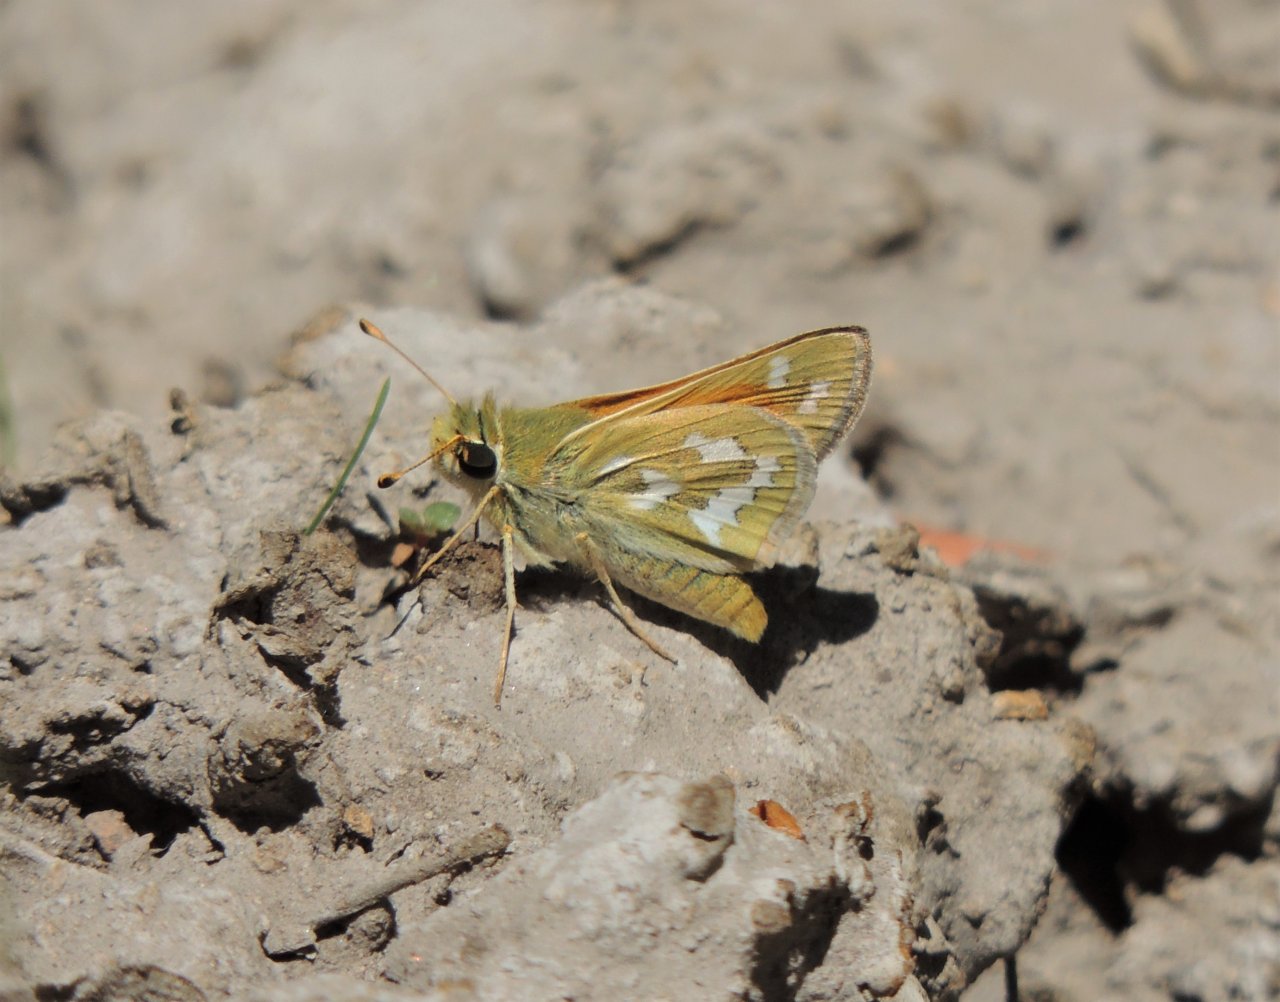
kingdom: Animalia
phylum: Arthropoda
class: Insecta
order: Lepidoptera
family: Hesperiidae
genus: Hesperia
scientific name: Hesperia comma
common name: Western Branded Skipper
